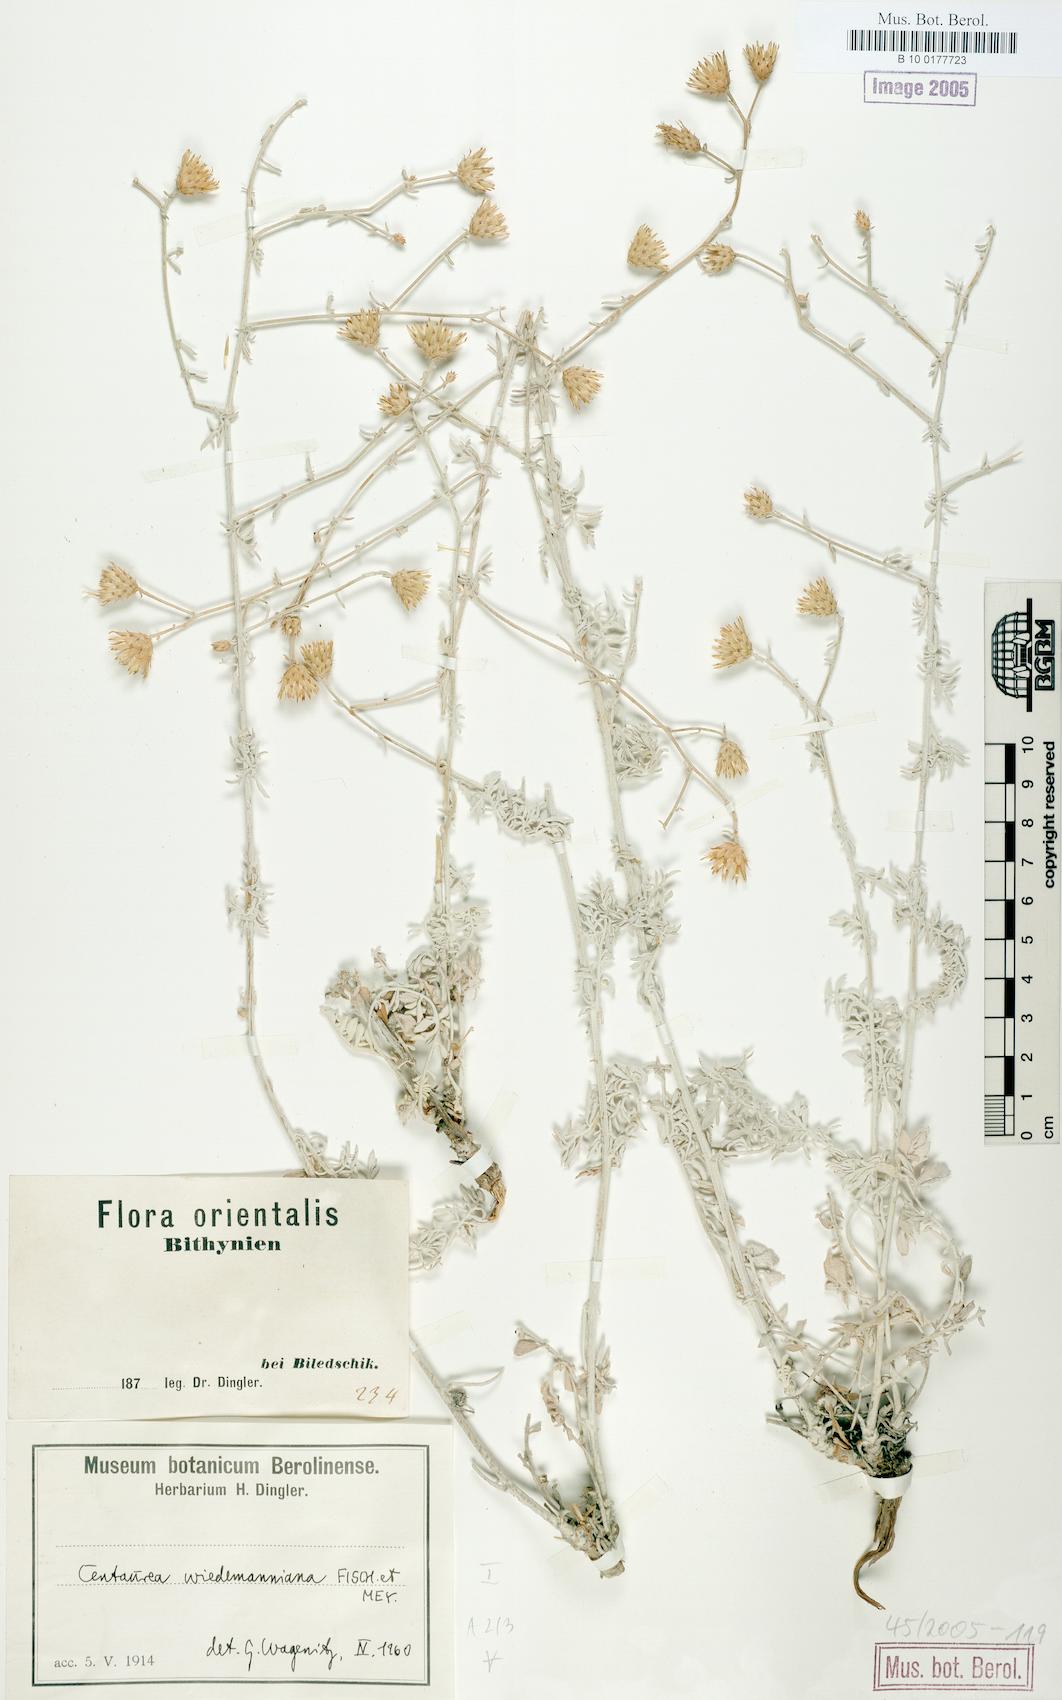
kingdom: Plantae
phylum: Tracheophyta
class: Magnoliopsida
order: Asterales
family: Asteraceae
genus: Centaurea
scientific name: Centaurea wiedemanniana
